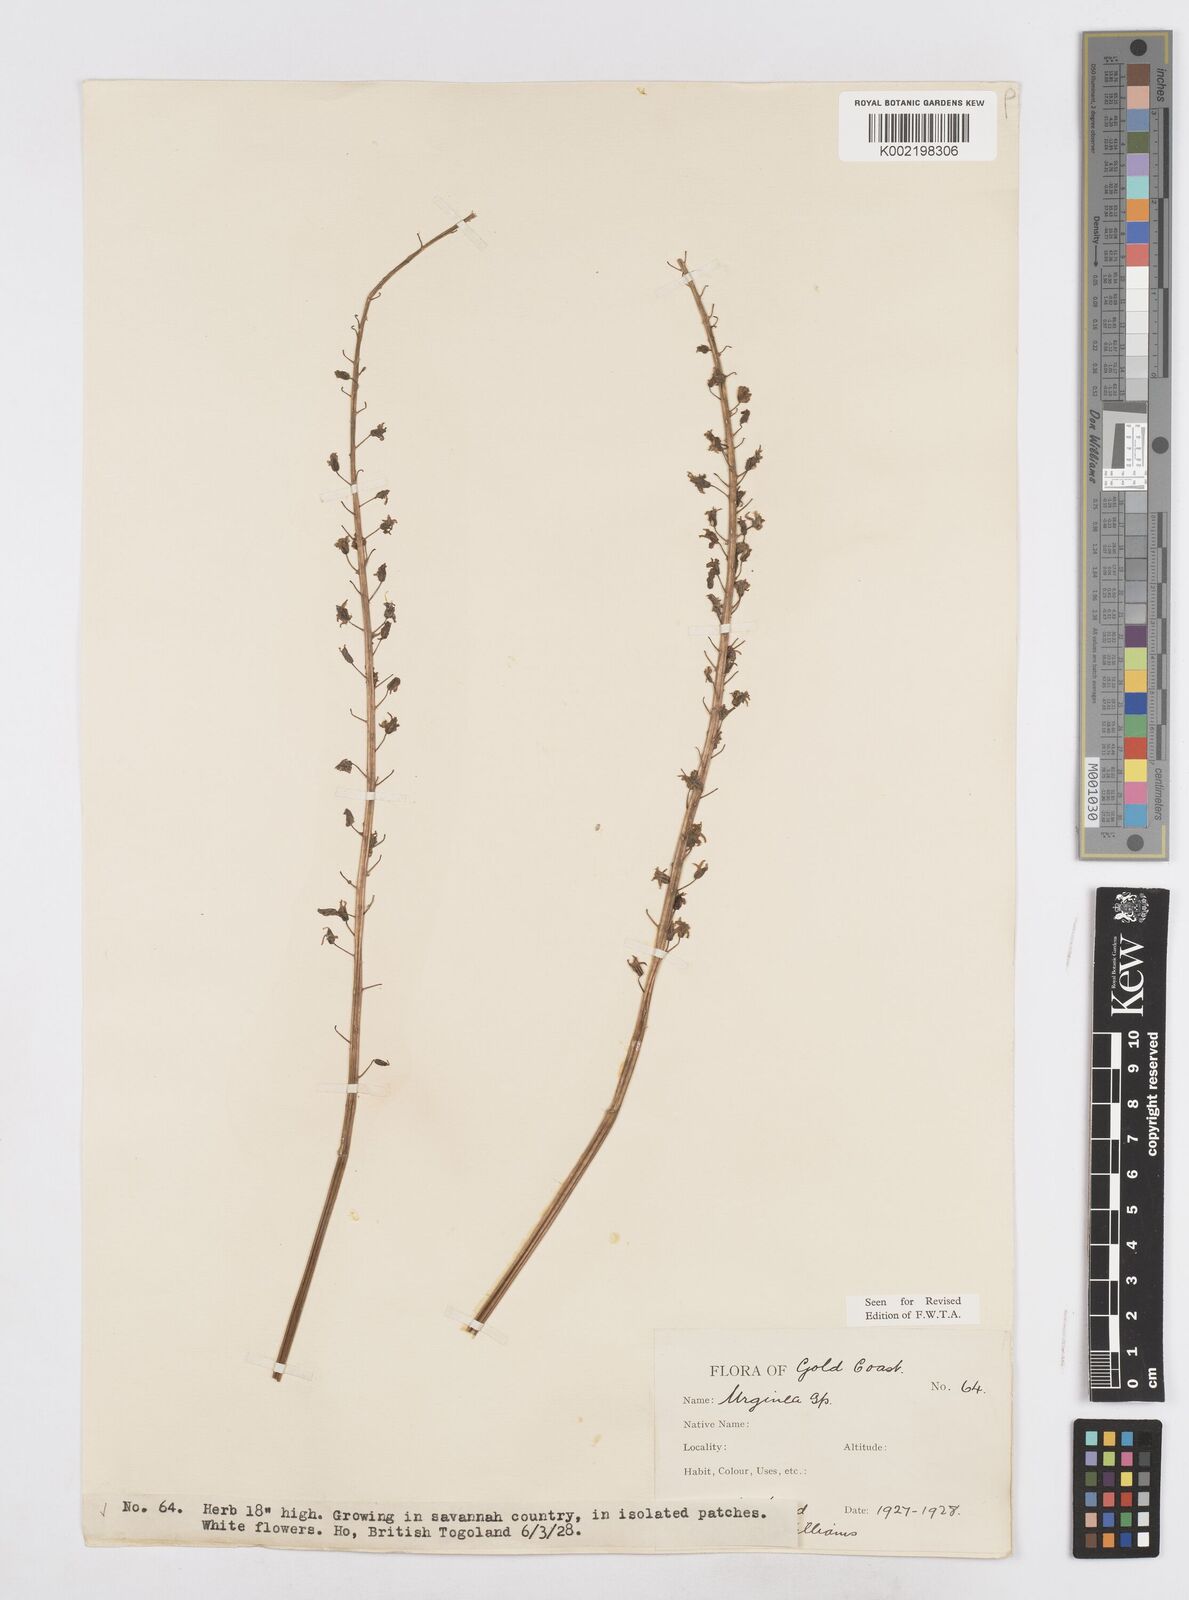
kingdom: Plantae
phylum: Tracheophyta
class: Liliopsida
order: Asparagales
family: Asparagaceae
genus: Drimia
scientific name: Drimia altissima
